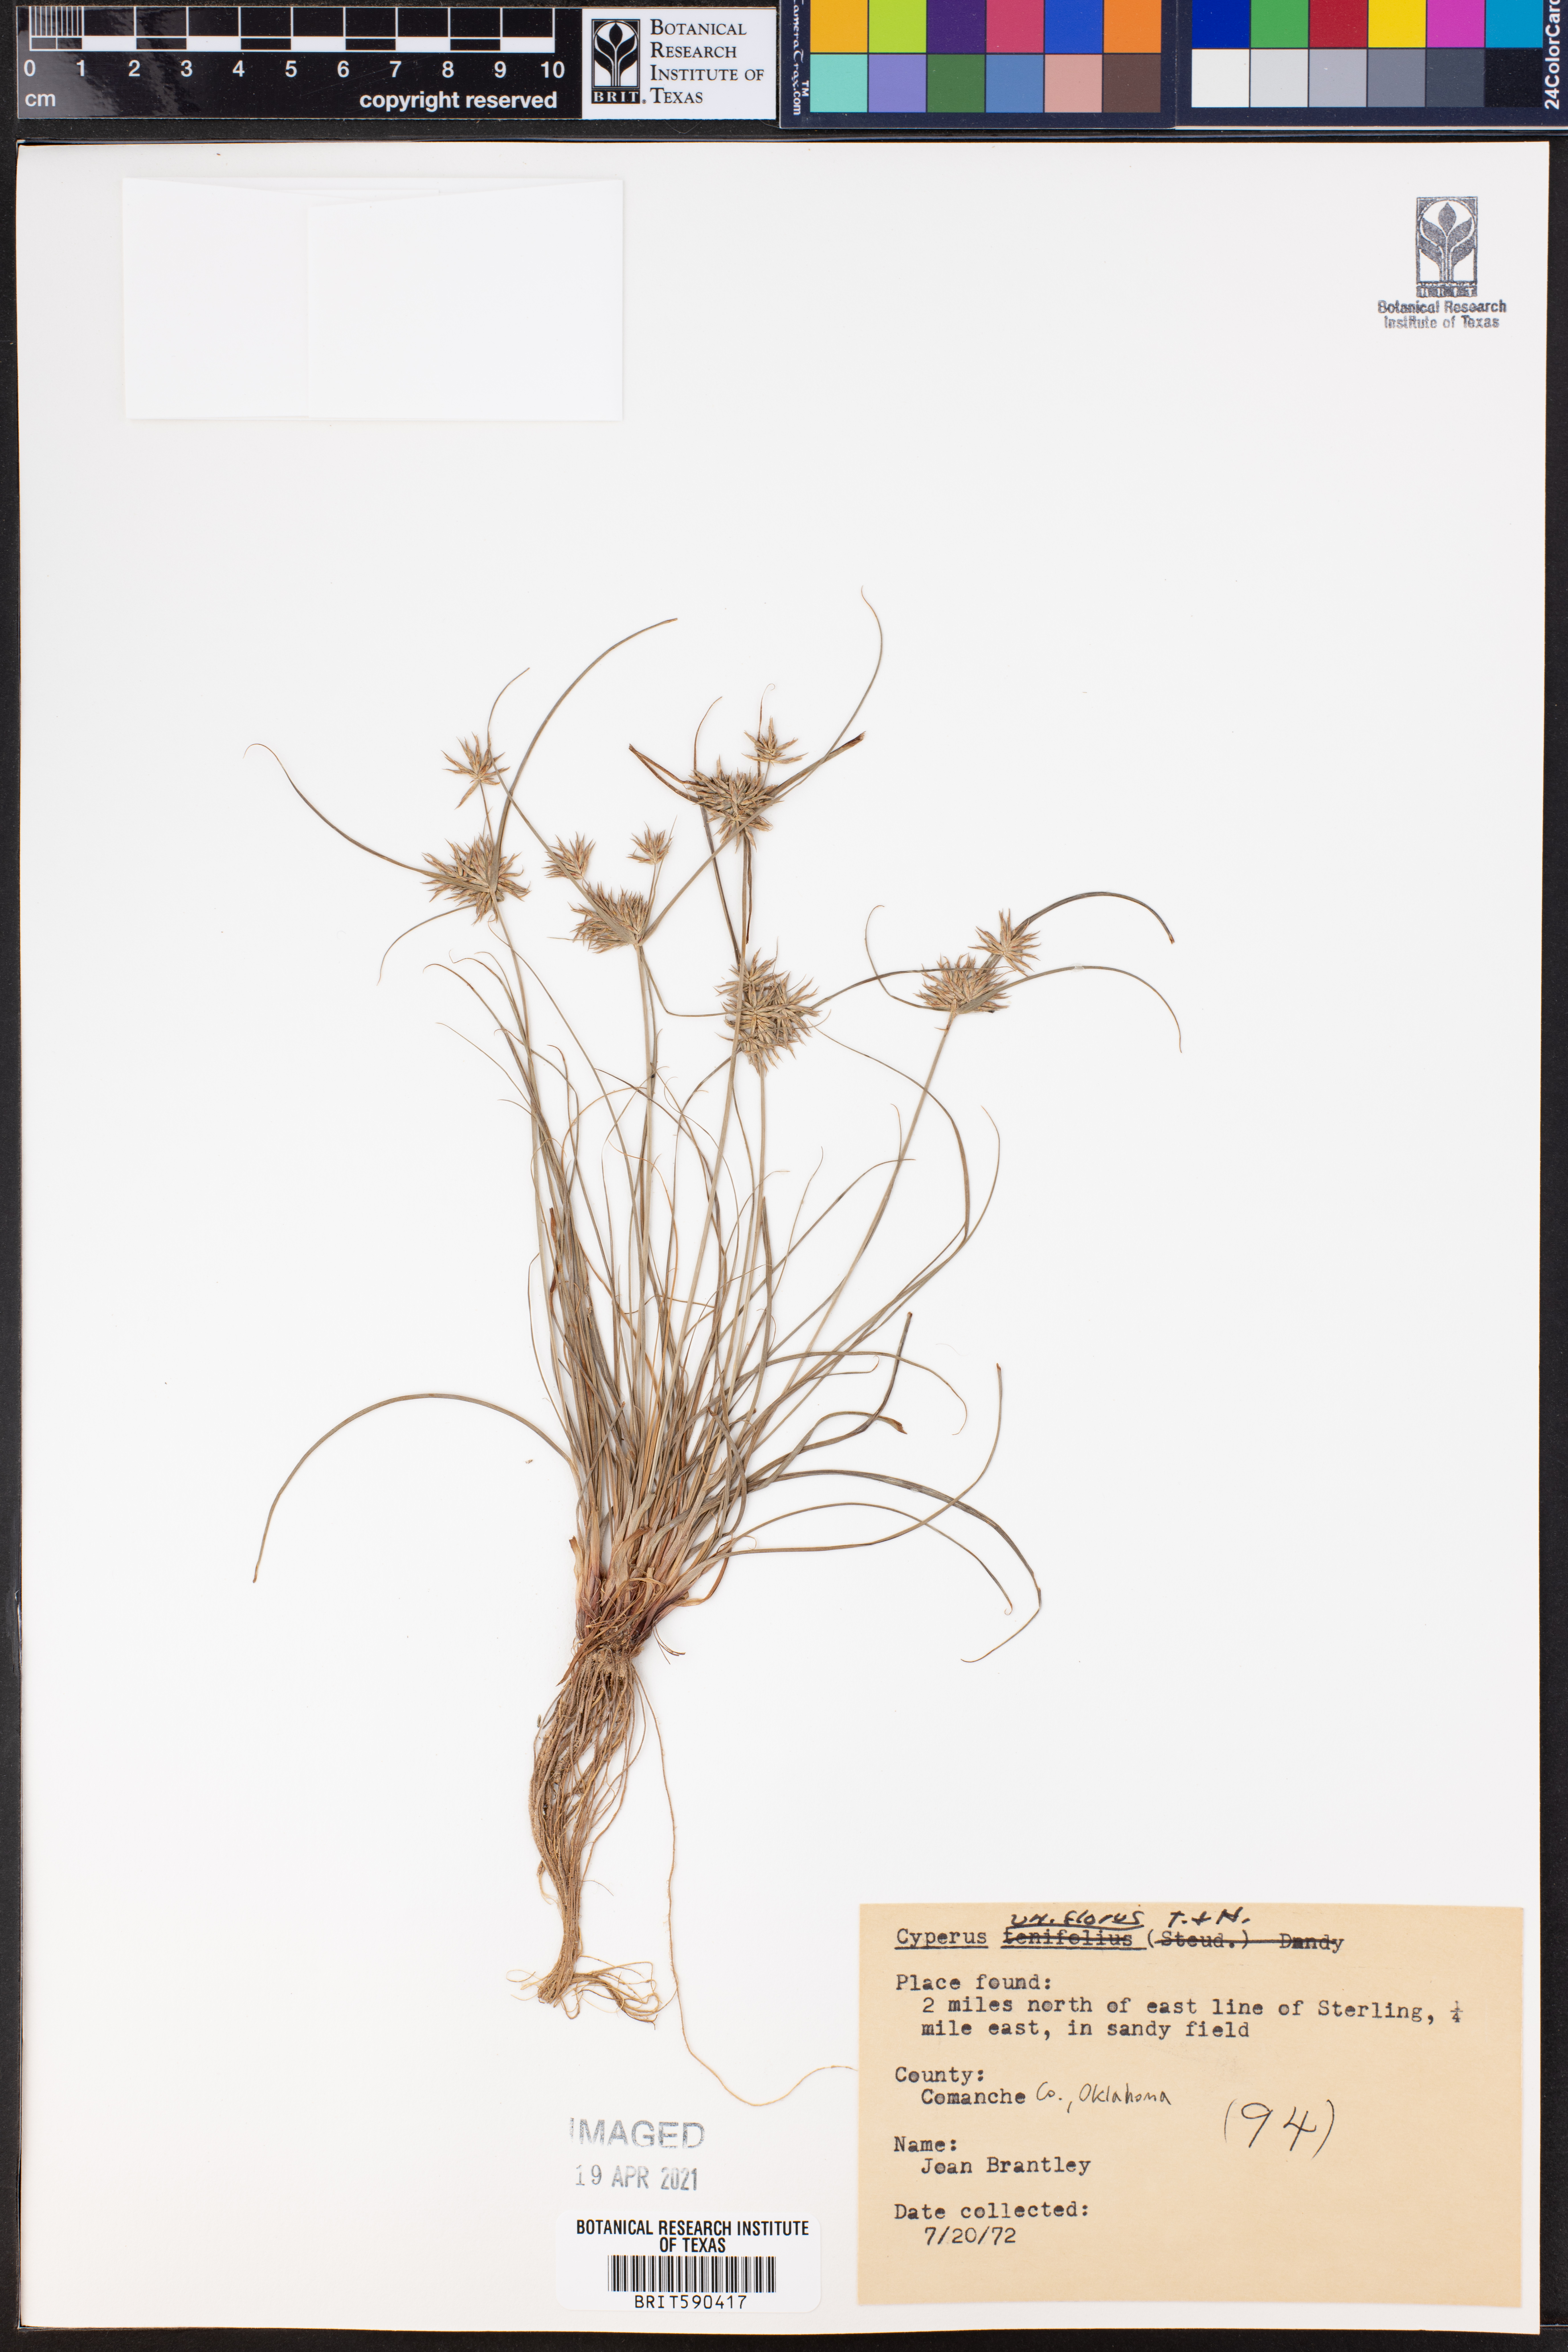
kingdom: Plantae
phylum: Tracheophyta
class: Liliopsida
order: Poales
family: Cyperaceae
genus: Cyperus
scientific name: Cyperus retroflexus
